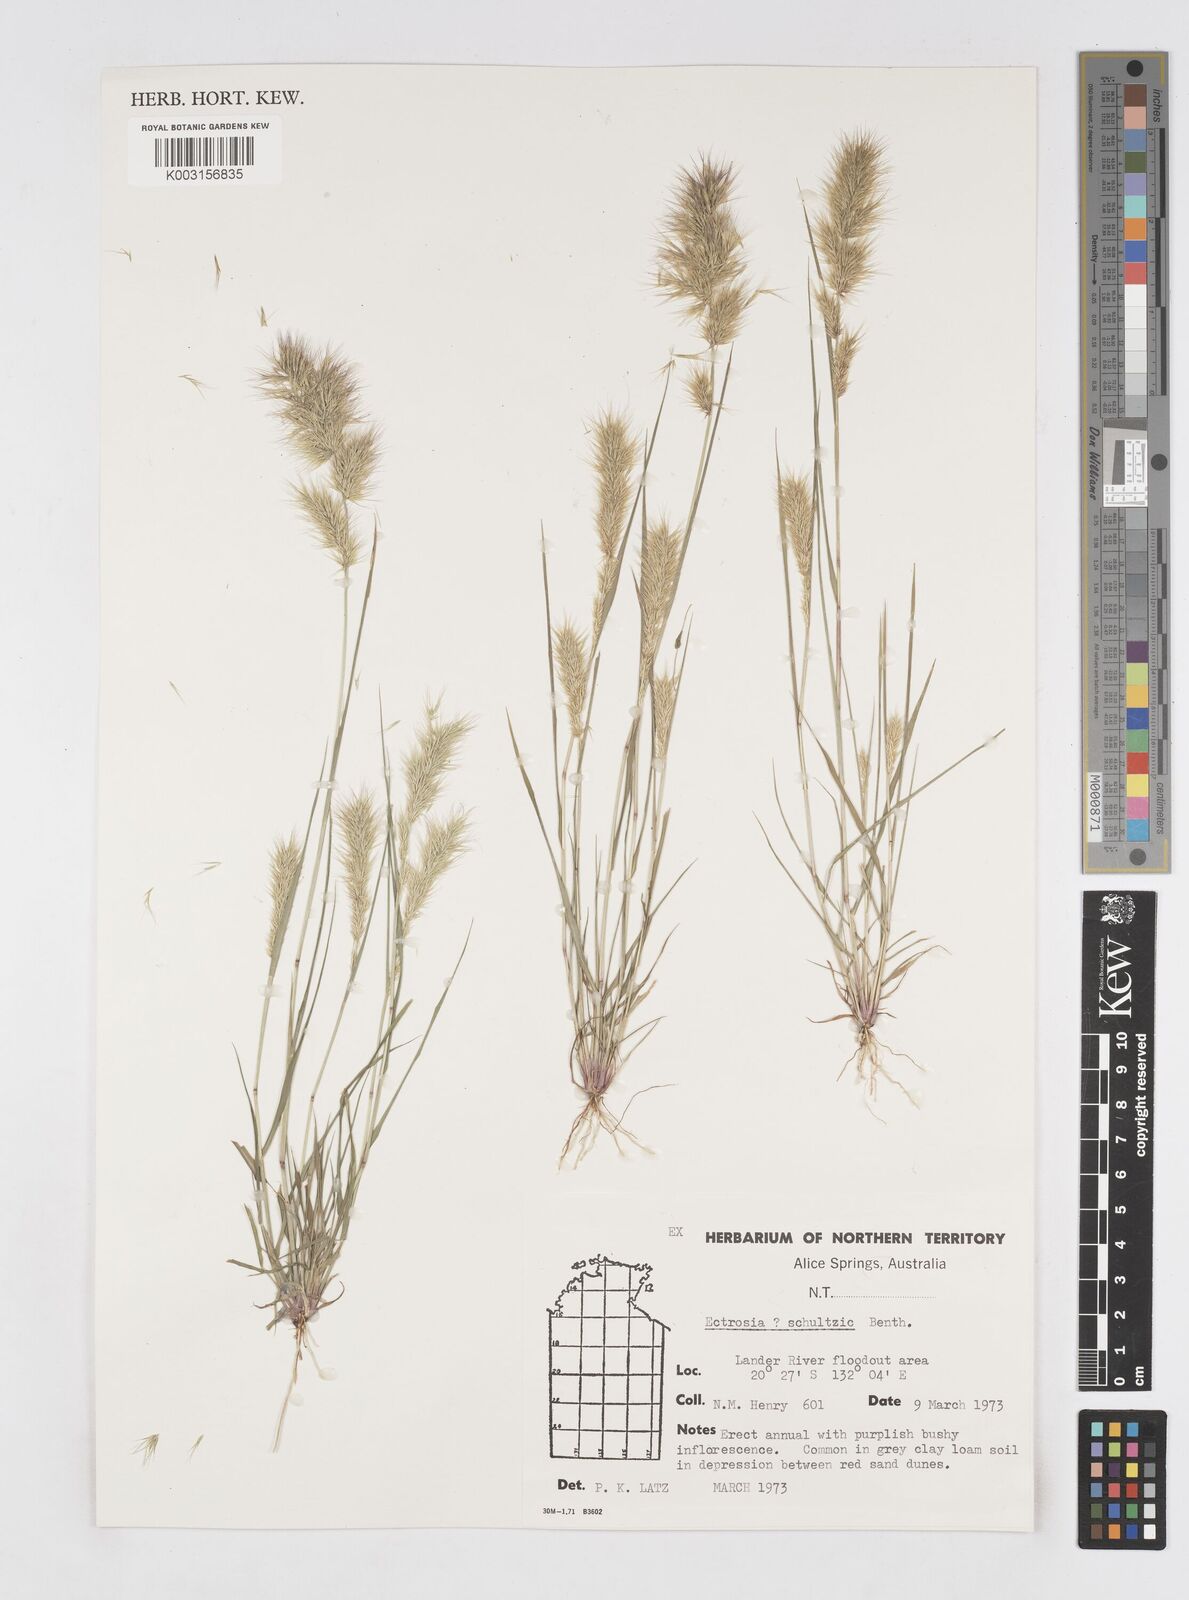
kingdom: Plantae
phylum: Tracheophyta
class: Liliopsida
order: Poales
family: Poaceae
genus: Eriachne
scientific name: Eriachne schultziana
